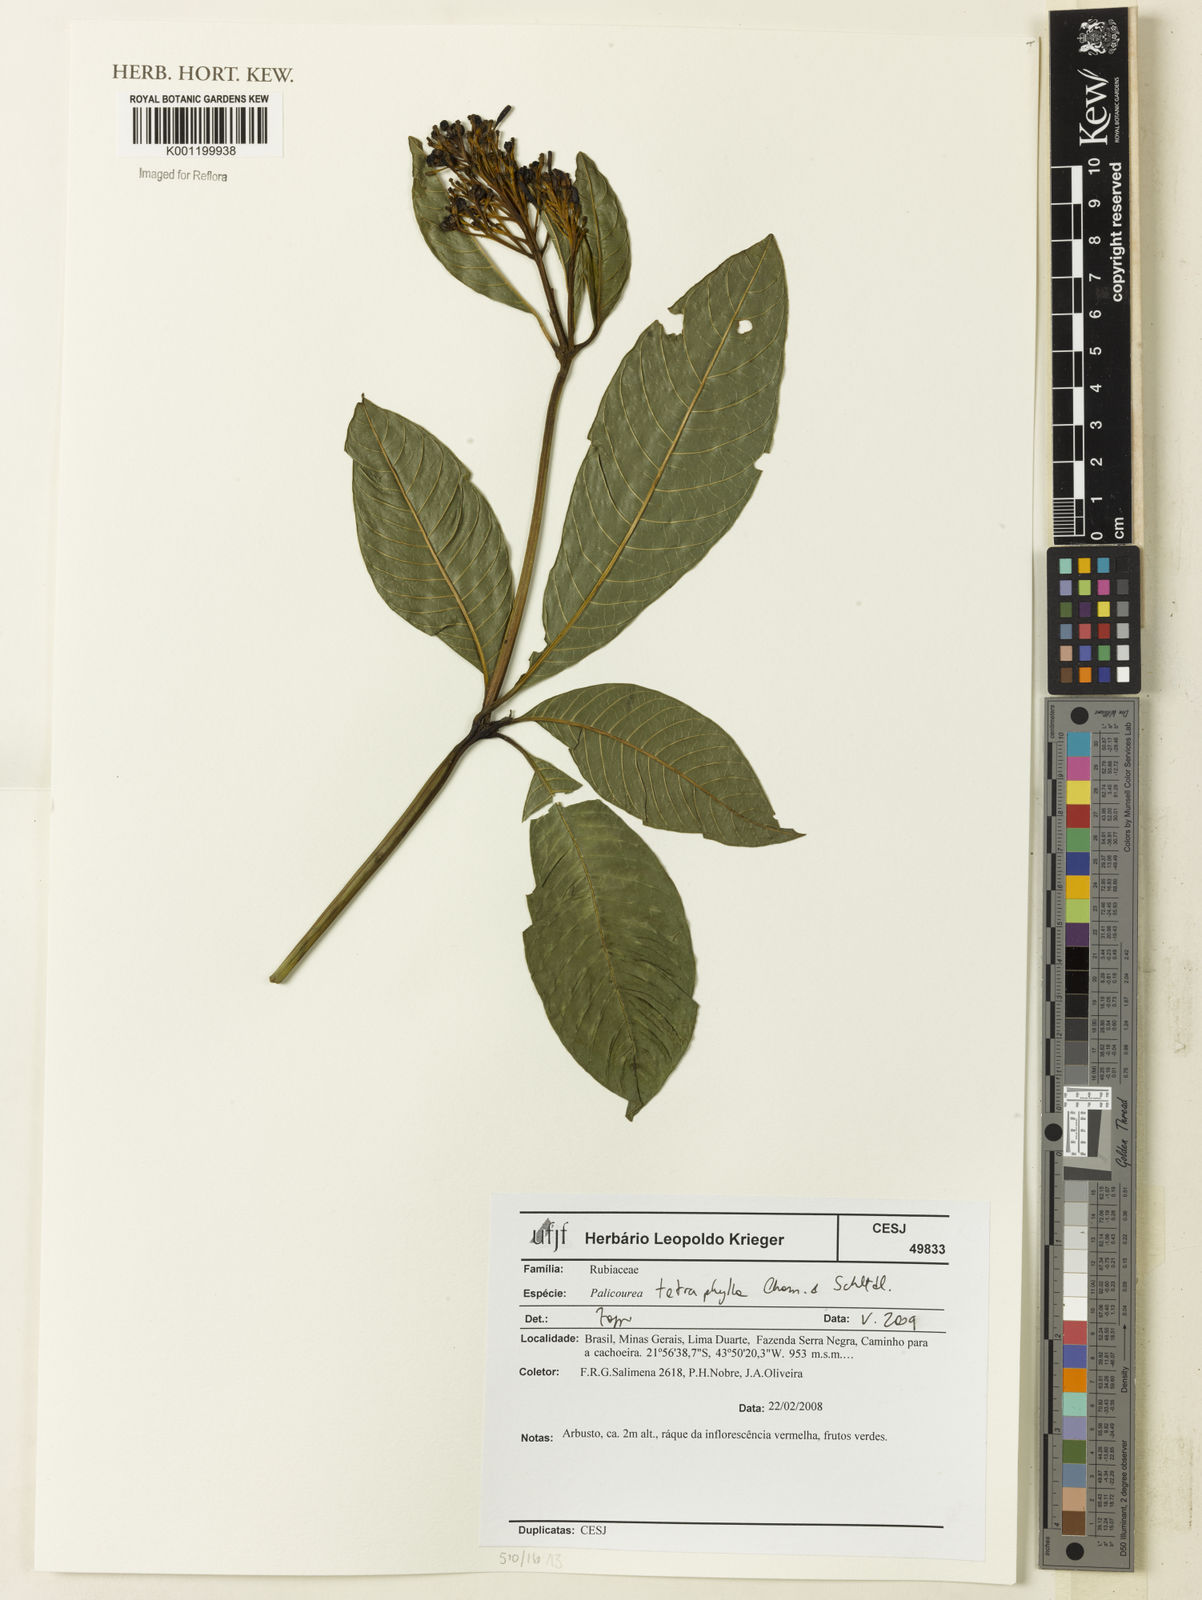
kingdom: Plantae
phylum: Tracheophyta
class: Magnoliopsida
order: Gentianales
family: Rubiaceae
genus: Palicourea
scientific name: Palicourea tetraphylla
